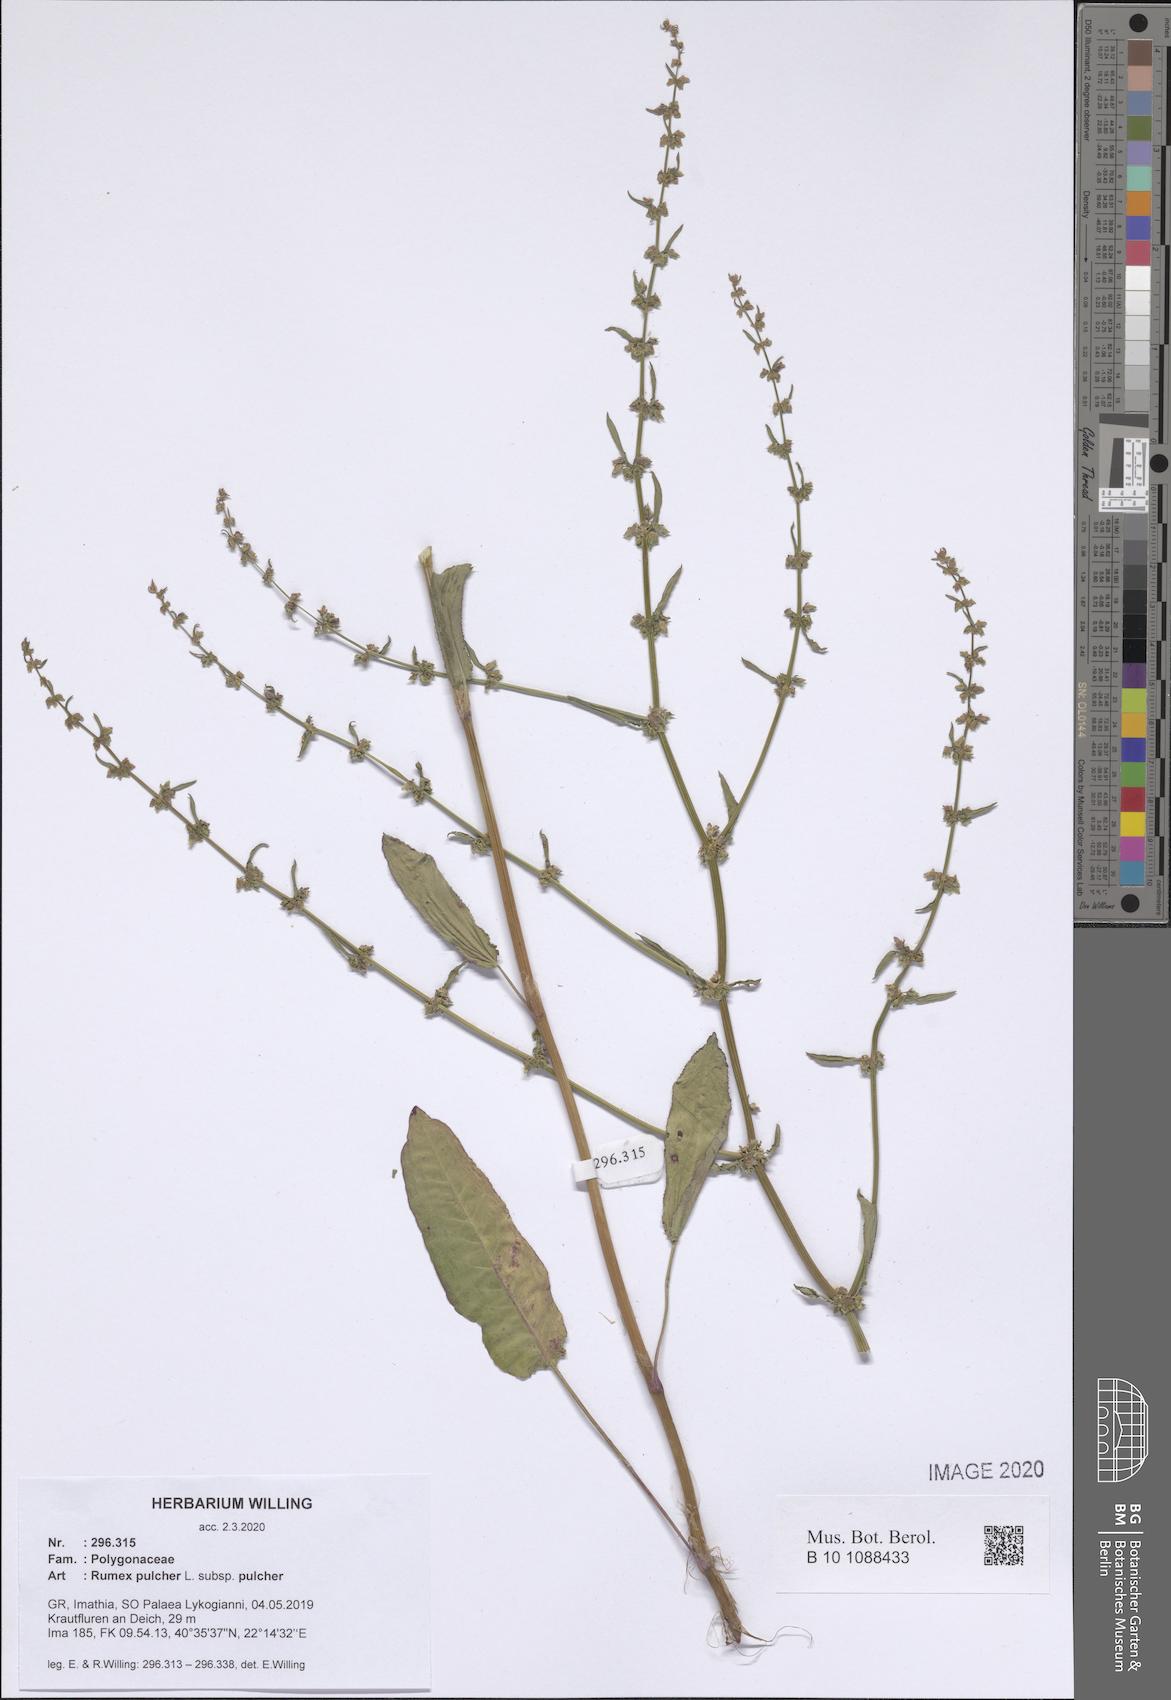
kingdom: Plantae
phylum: Tracheophyta
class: Magnoliopsida
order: Caryophyllales
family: Polygonaceae
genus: Rumex
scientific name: Rumex pulcher
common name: Fiddle dock
